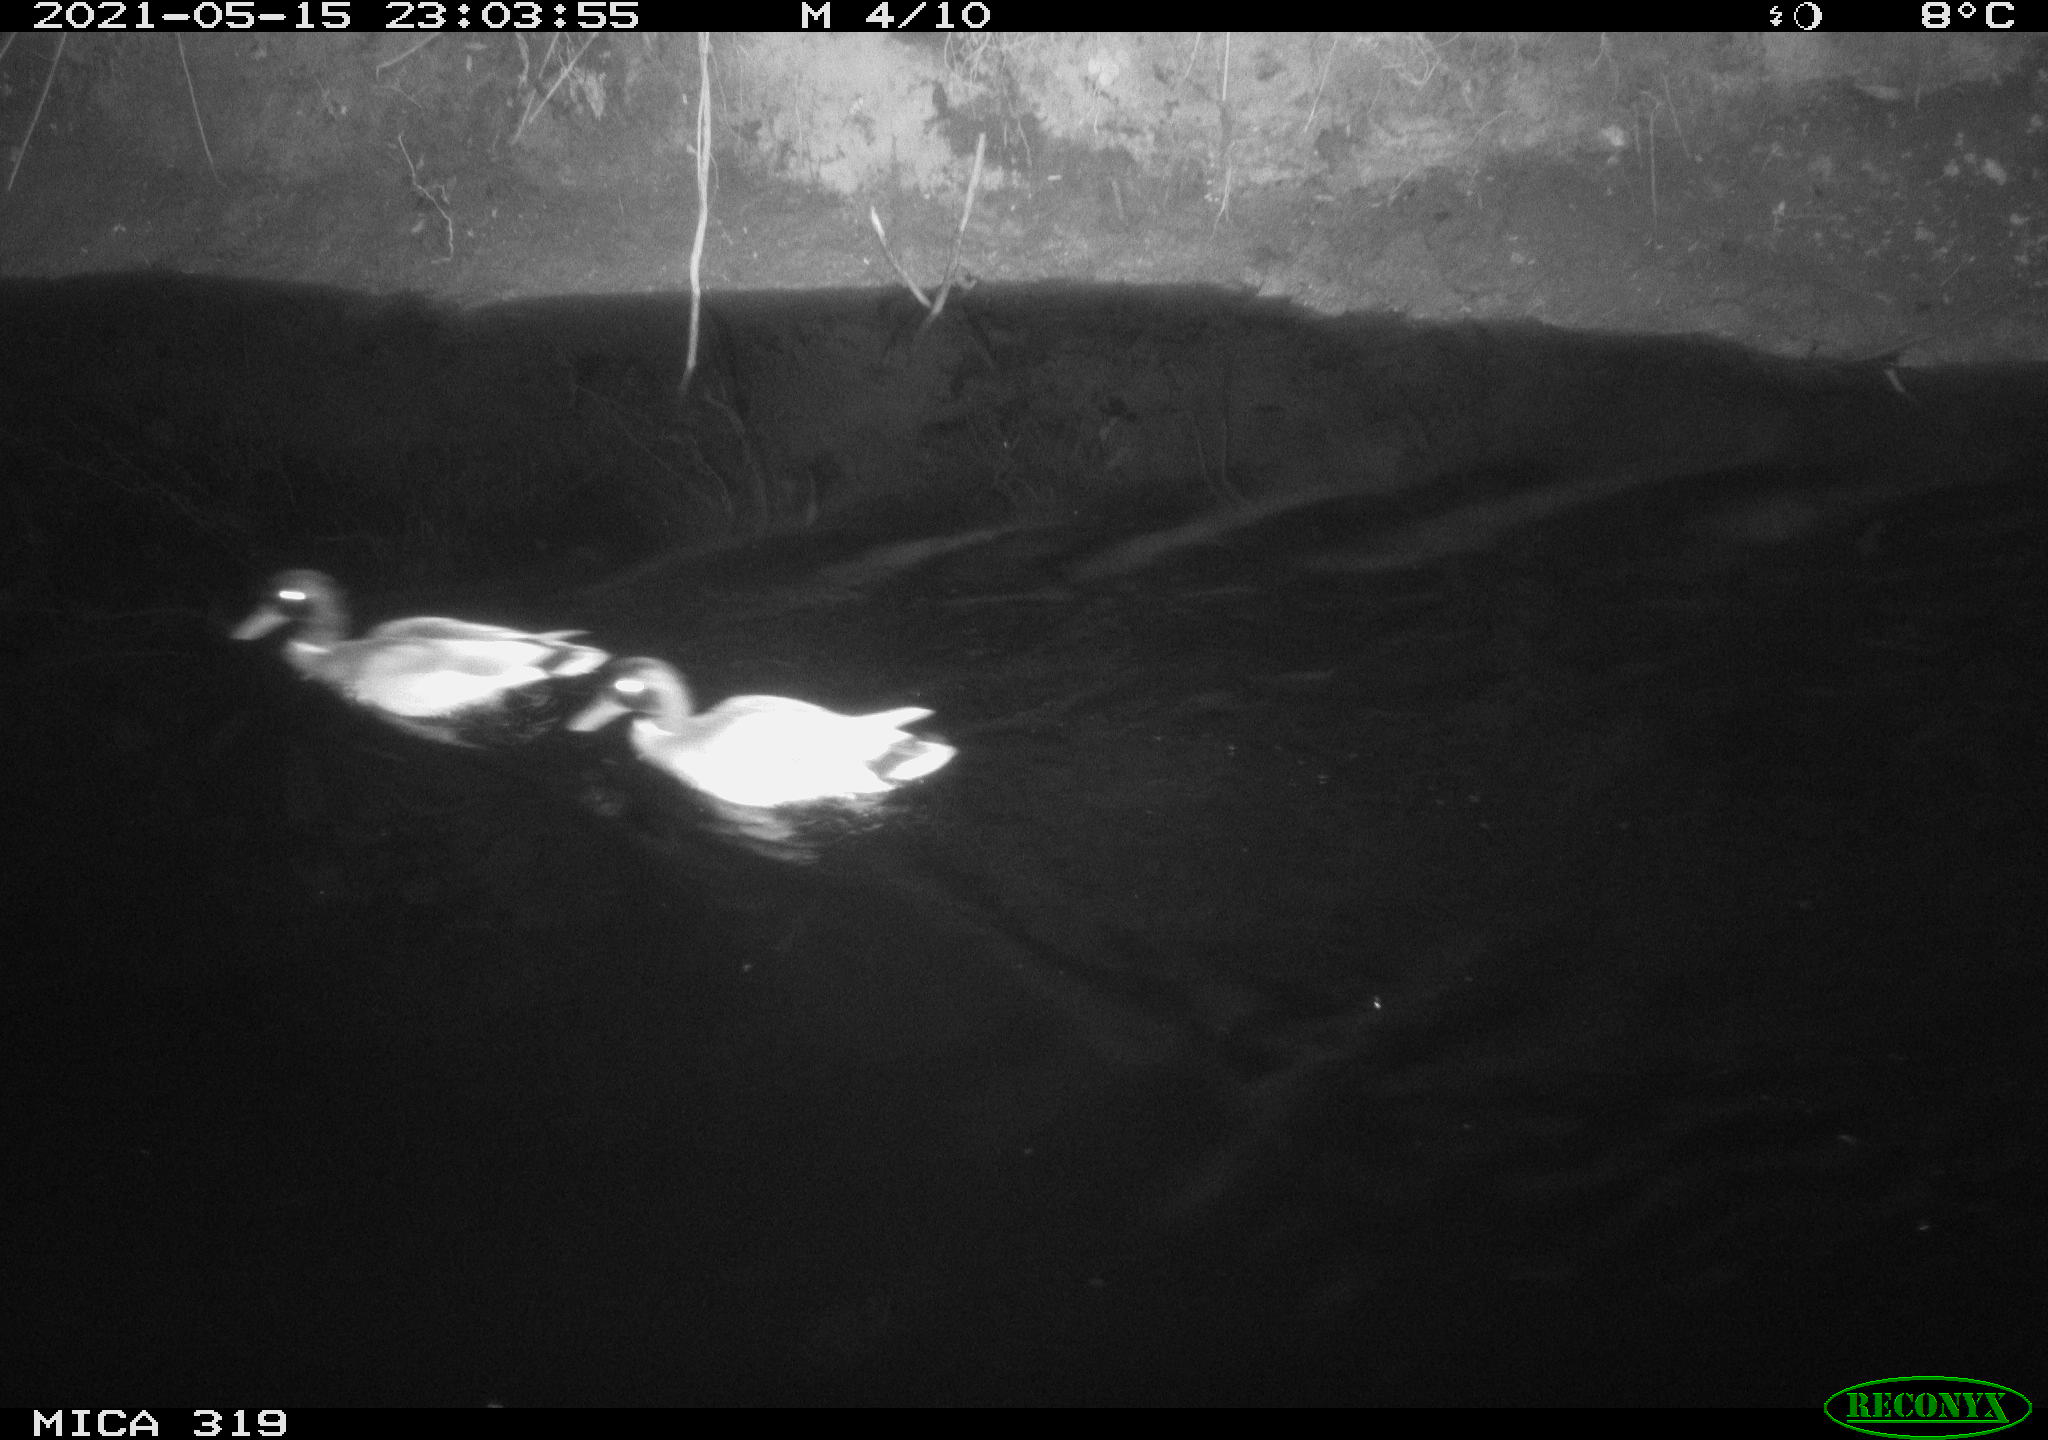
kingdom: Animalia
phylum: Chordata
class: Aves
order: Anseriformes
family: Anatidae
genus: Anas
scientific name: Anas platyrhynchos
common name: Mallard
